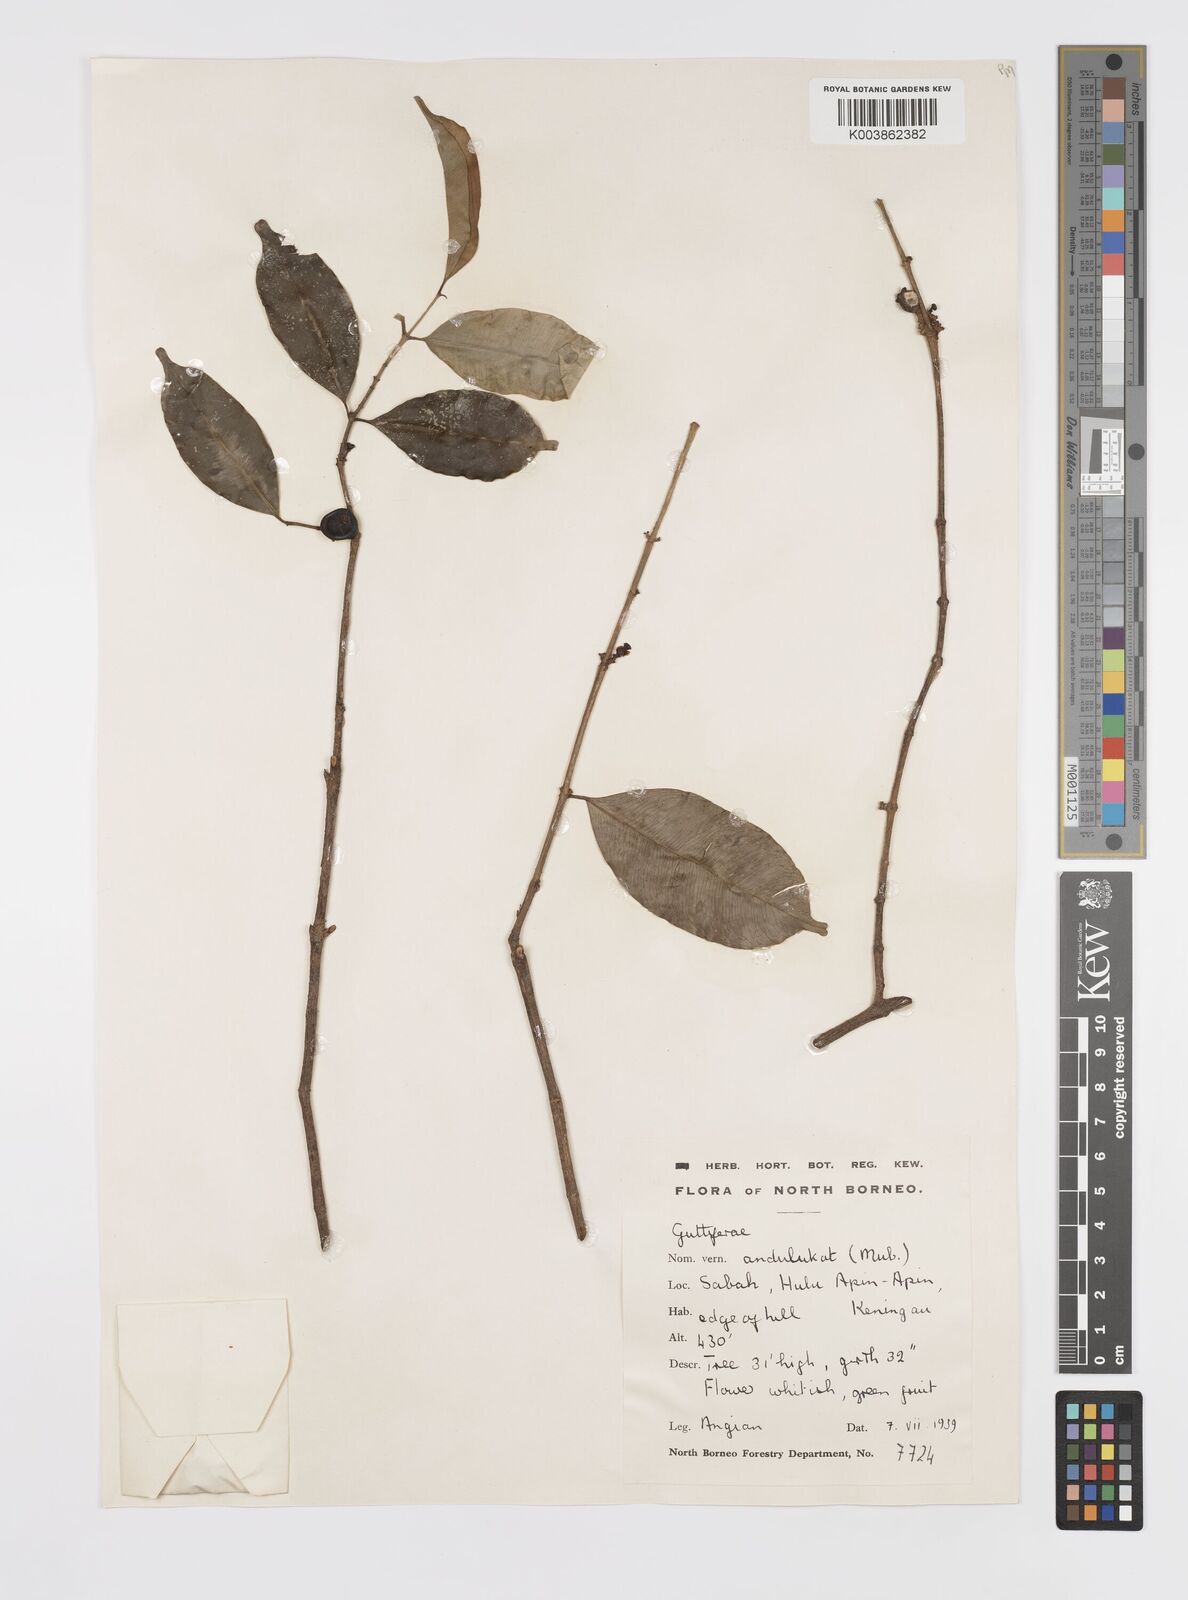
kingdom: Plantae
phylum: Tracheophyta
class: Magnoliopsida
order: Malpighiales
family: Clusiaceae
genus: Garcinia
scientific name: Garcinia
